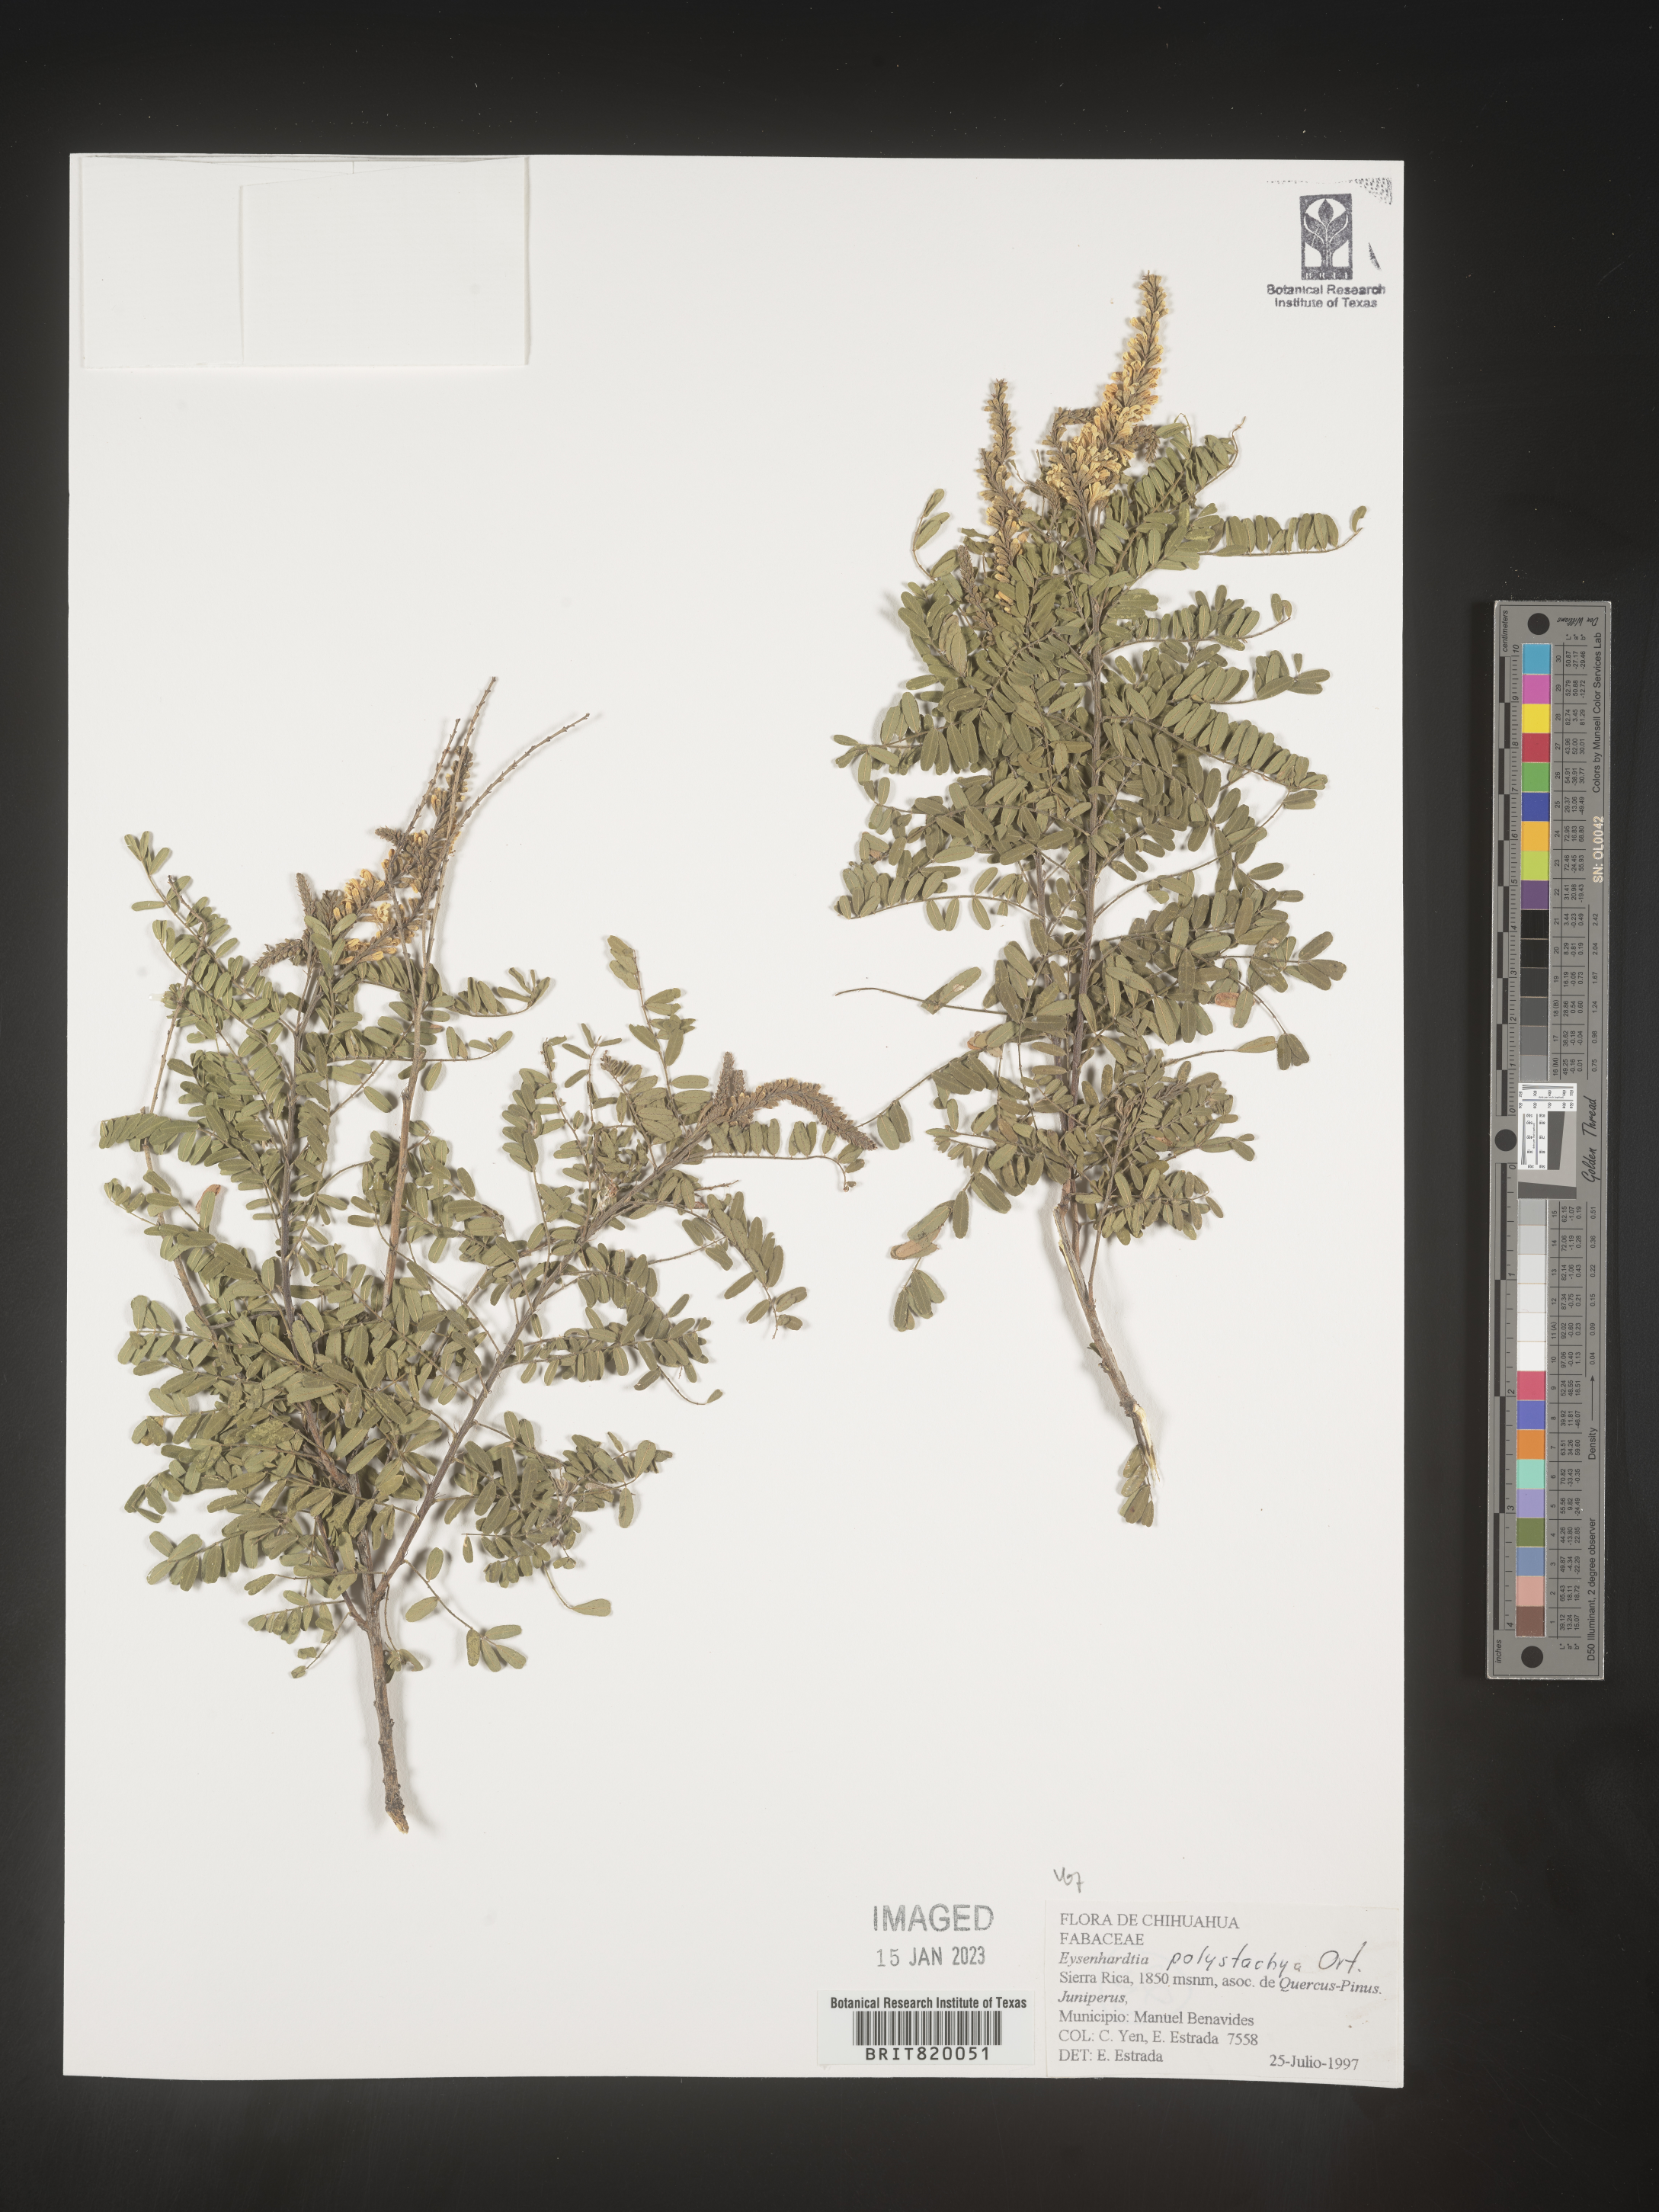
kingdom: Plantae
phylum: Tracheophyta
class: Magnoliopsida
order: Fabales
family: Fabaceae
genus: Eysenhardtia
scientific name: Eysenhardtia
